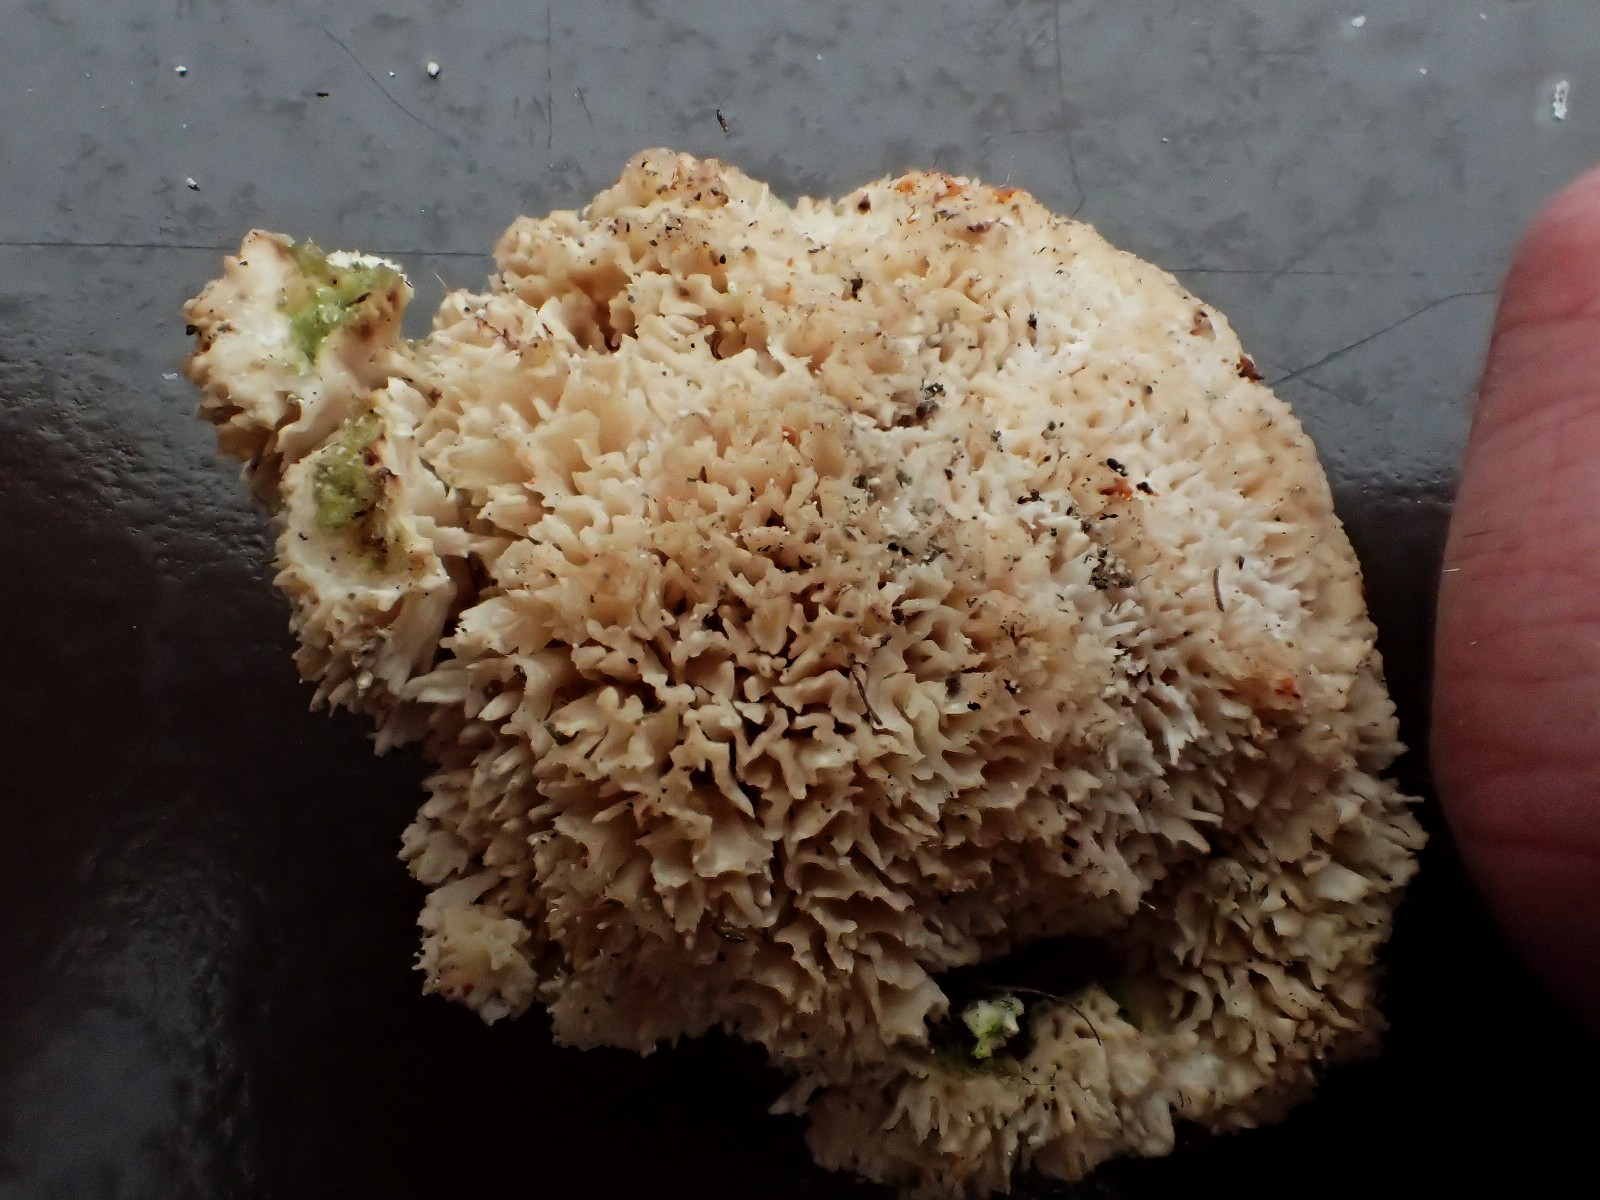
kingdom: Fungi
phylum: Basidiomycota
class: Agaricomycetes
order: Polyporales
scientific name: Polyporales
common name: poresvampordenen
